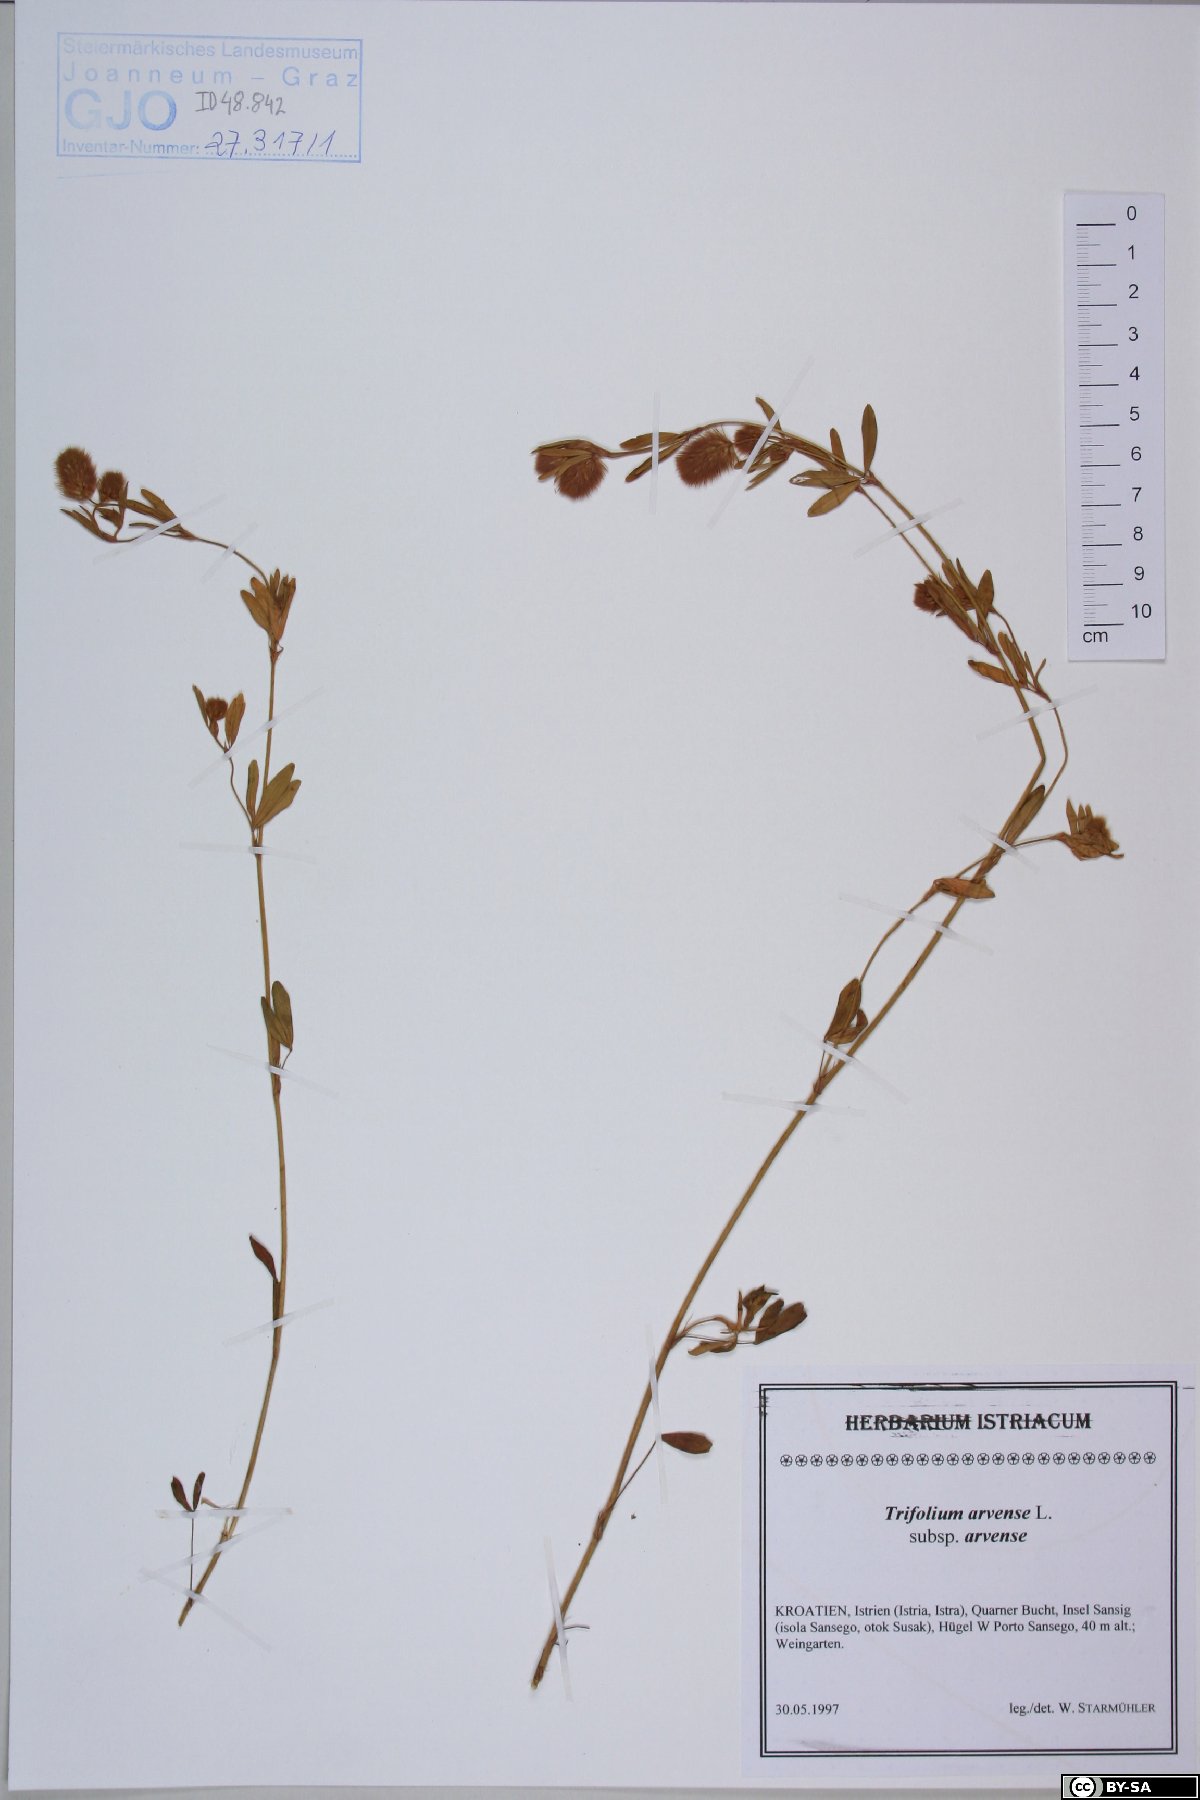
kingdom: Plantae
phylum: Tracheophyta
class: Magnoliopsida
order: Fabales
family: Fabaceae
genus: Trifolium
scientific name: Trifolium arvense
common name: Hare's-foot clover
